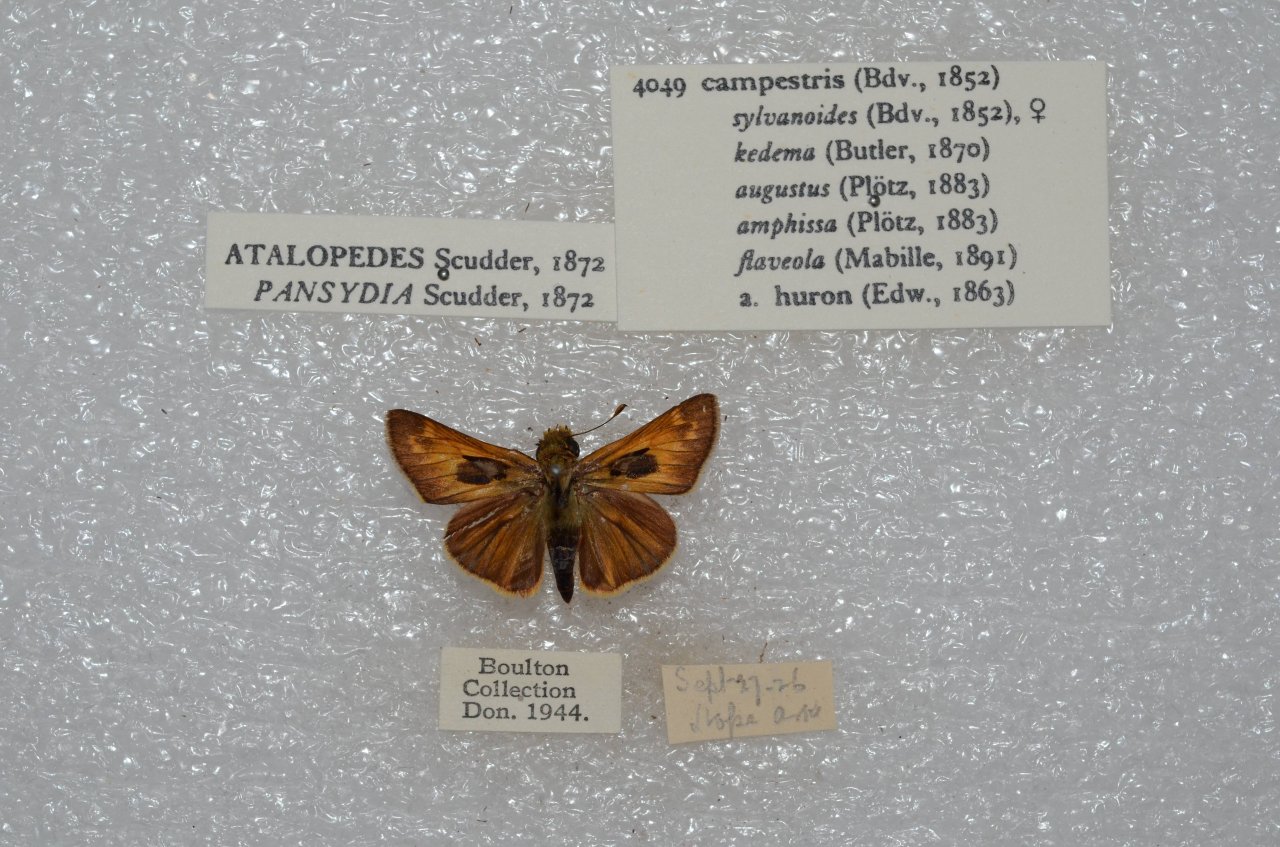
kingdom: Animalia
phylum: Arthropoda
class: Insecta
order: Lepidoptera
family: Hesperiidae
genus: Atalopedes
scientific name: Atalopedes campestris
